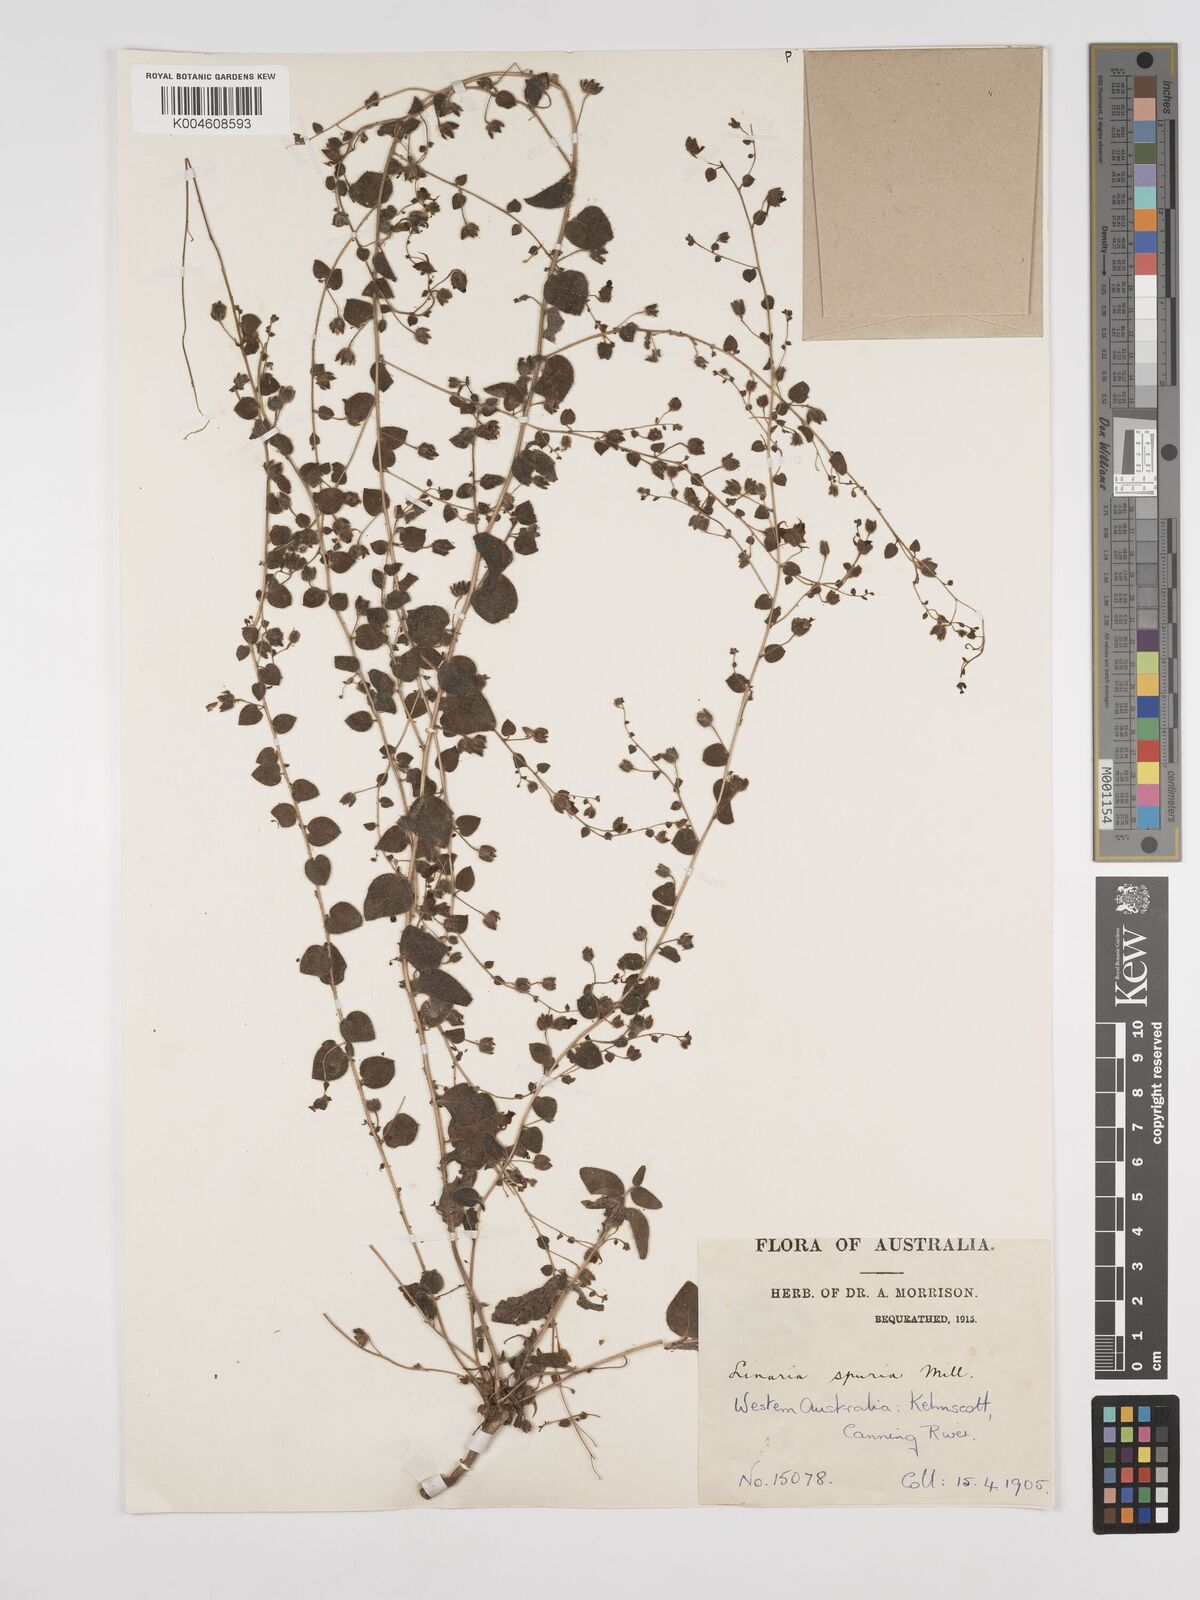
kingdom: Plantae
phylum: Tracheophyta
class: Magnoliopsida
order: Lamiales
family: Plantaginaceae
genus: Kickxia
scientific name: Kickxia spuria
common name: Round-leaved fluellen
